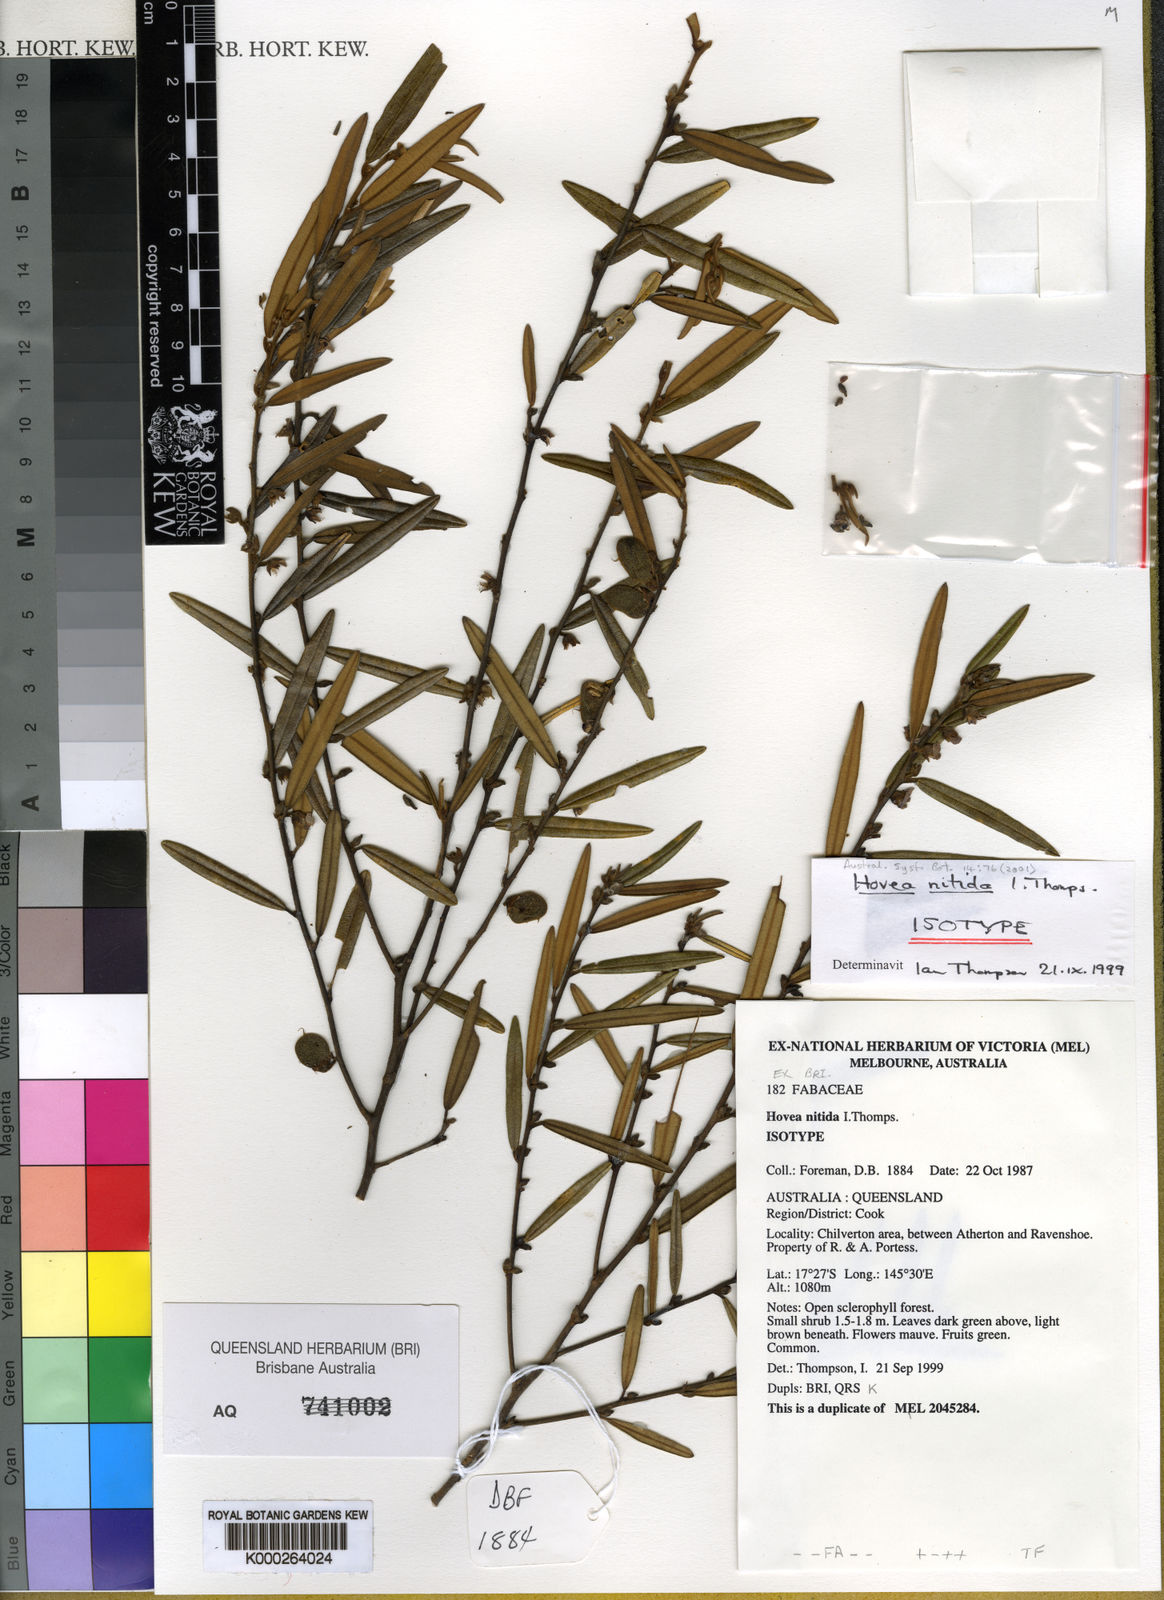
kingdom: Plantae
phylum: Tracheophyta
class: Magnoliopsida
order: Fabales
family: Fabaceae
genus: Hovea
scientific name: Hovea nitida
